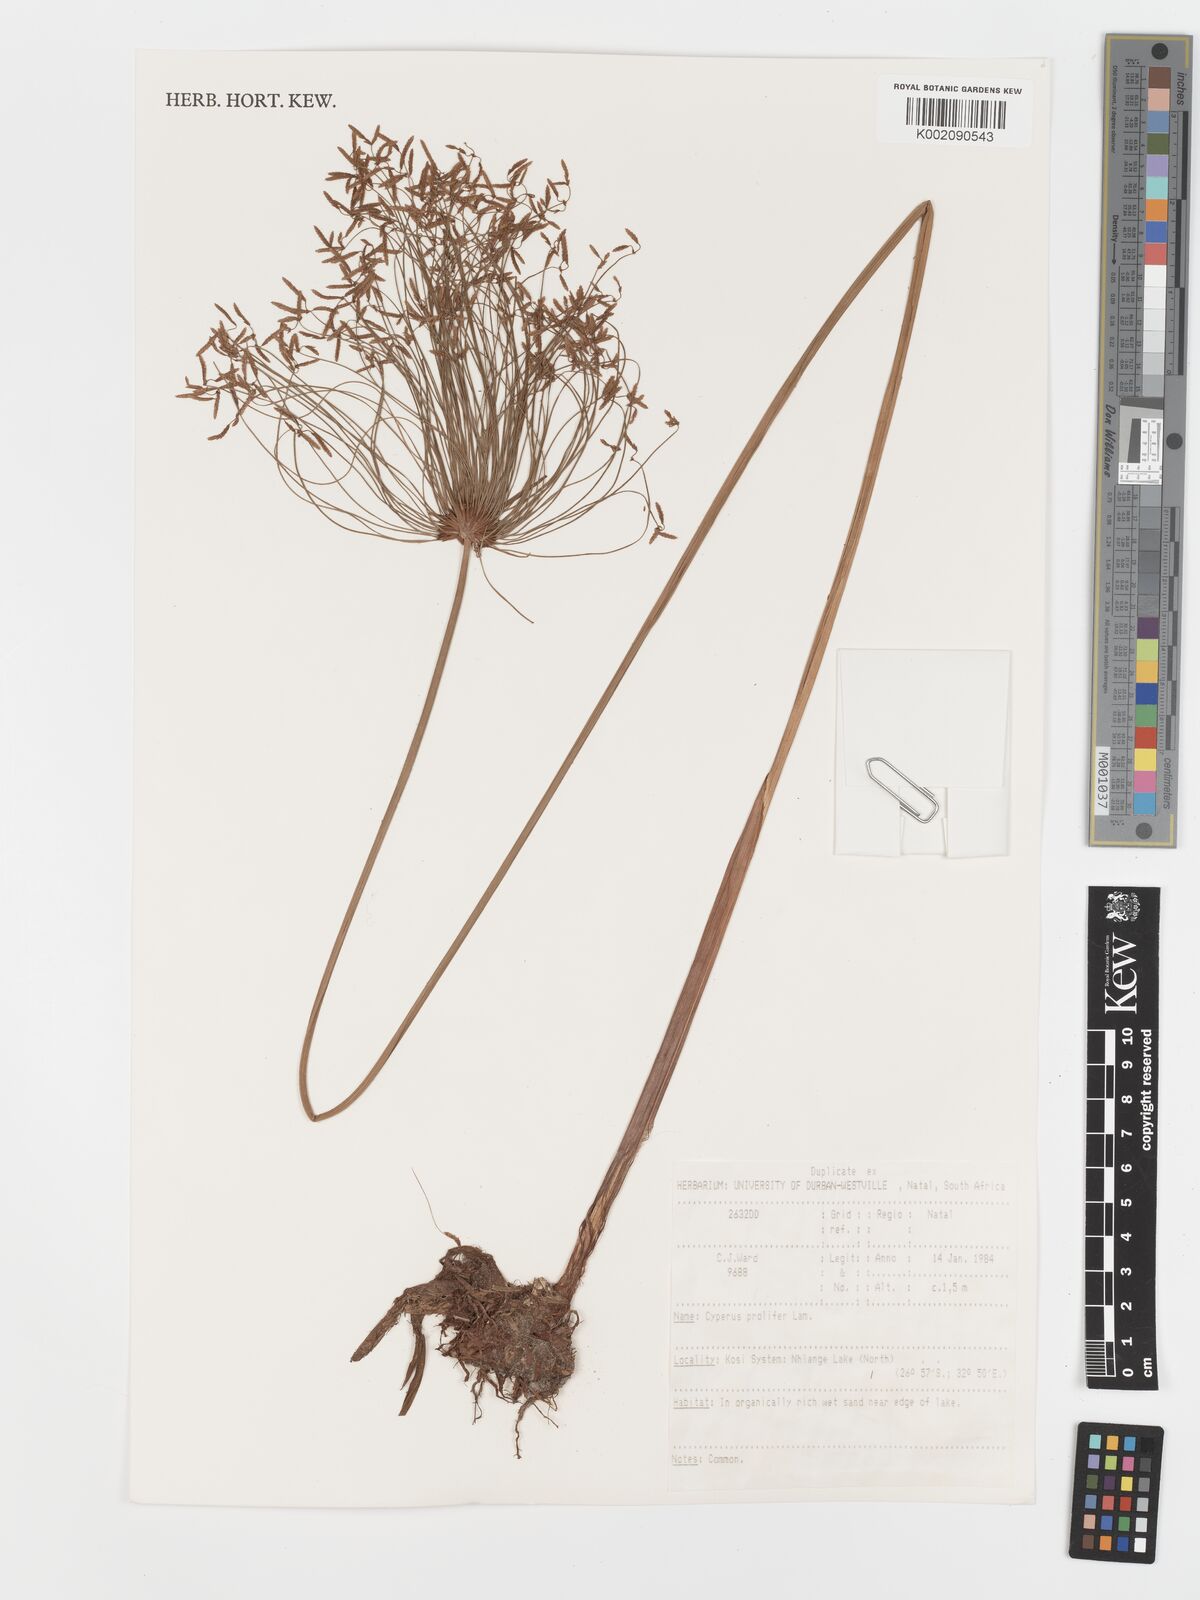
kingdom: Plantae
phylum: Tracheophyta
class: Liliopsida
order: Poales
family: Cyperaceae
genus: Cyperus
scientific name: Cyperus prolifer
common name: Miniature flatsedge
